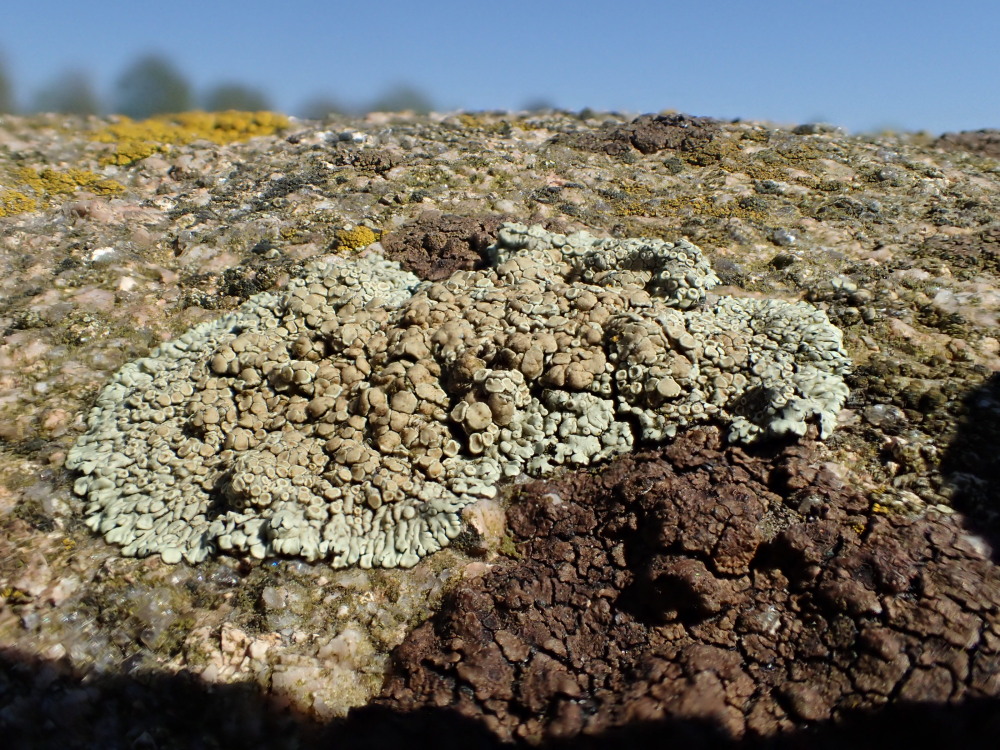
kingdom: Fungi
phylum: Ascomycota
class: Lecanoromycetes
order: Lecanorales
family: Lecanoraceae
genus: Protoparmeliopsis
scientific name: Protoparmeliopsis muralis
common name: randfliget kantskivelav
